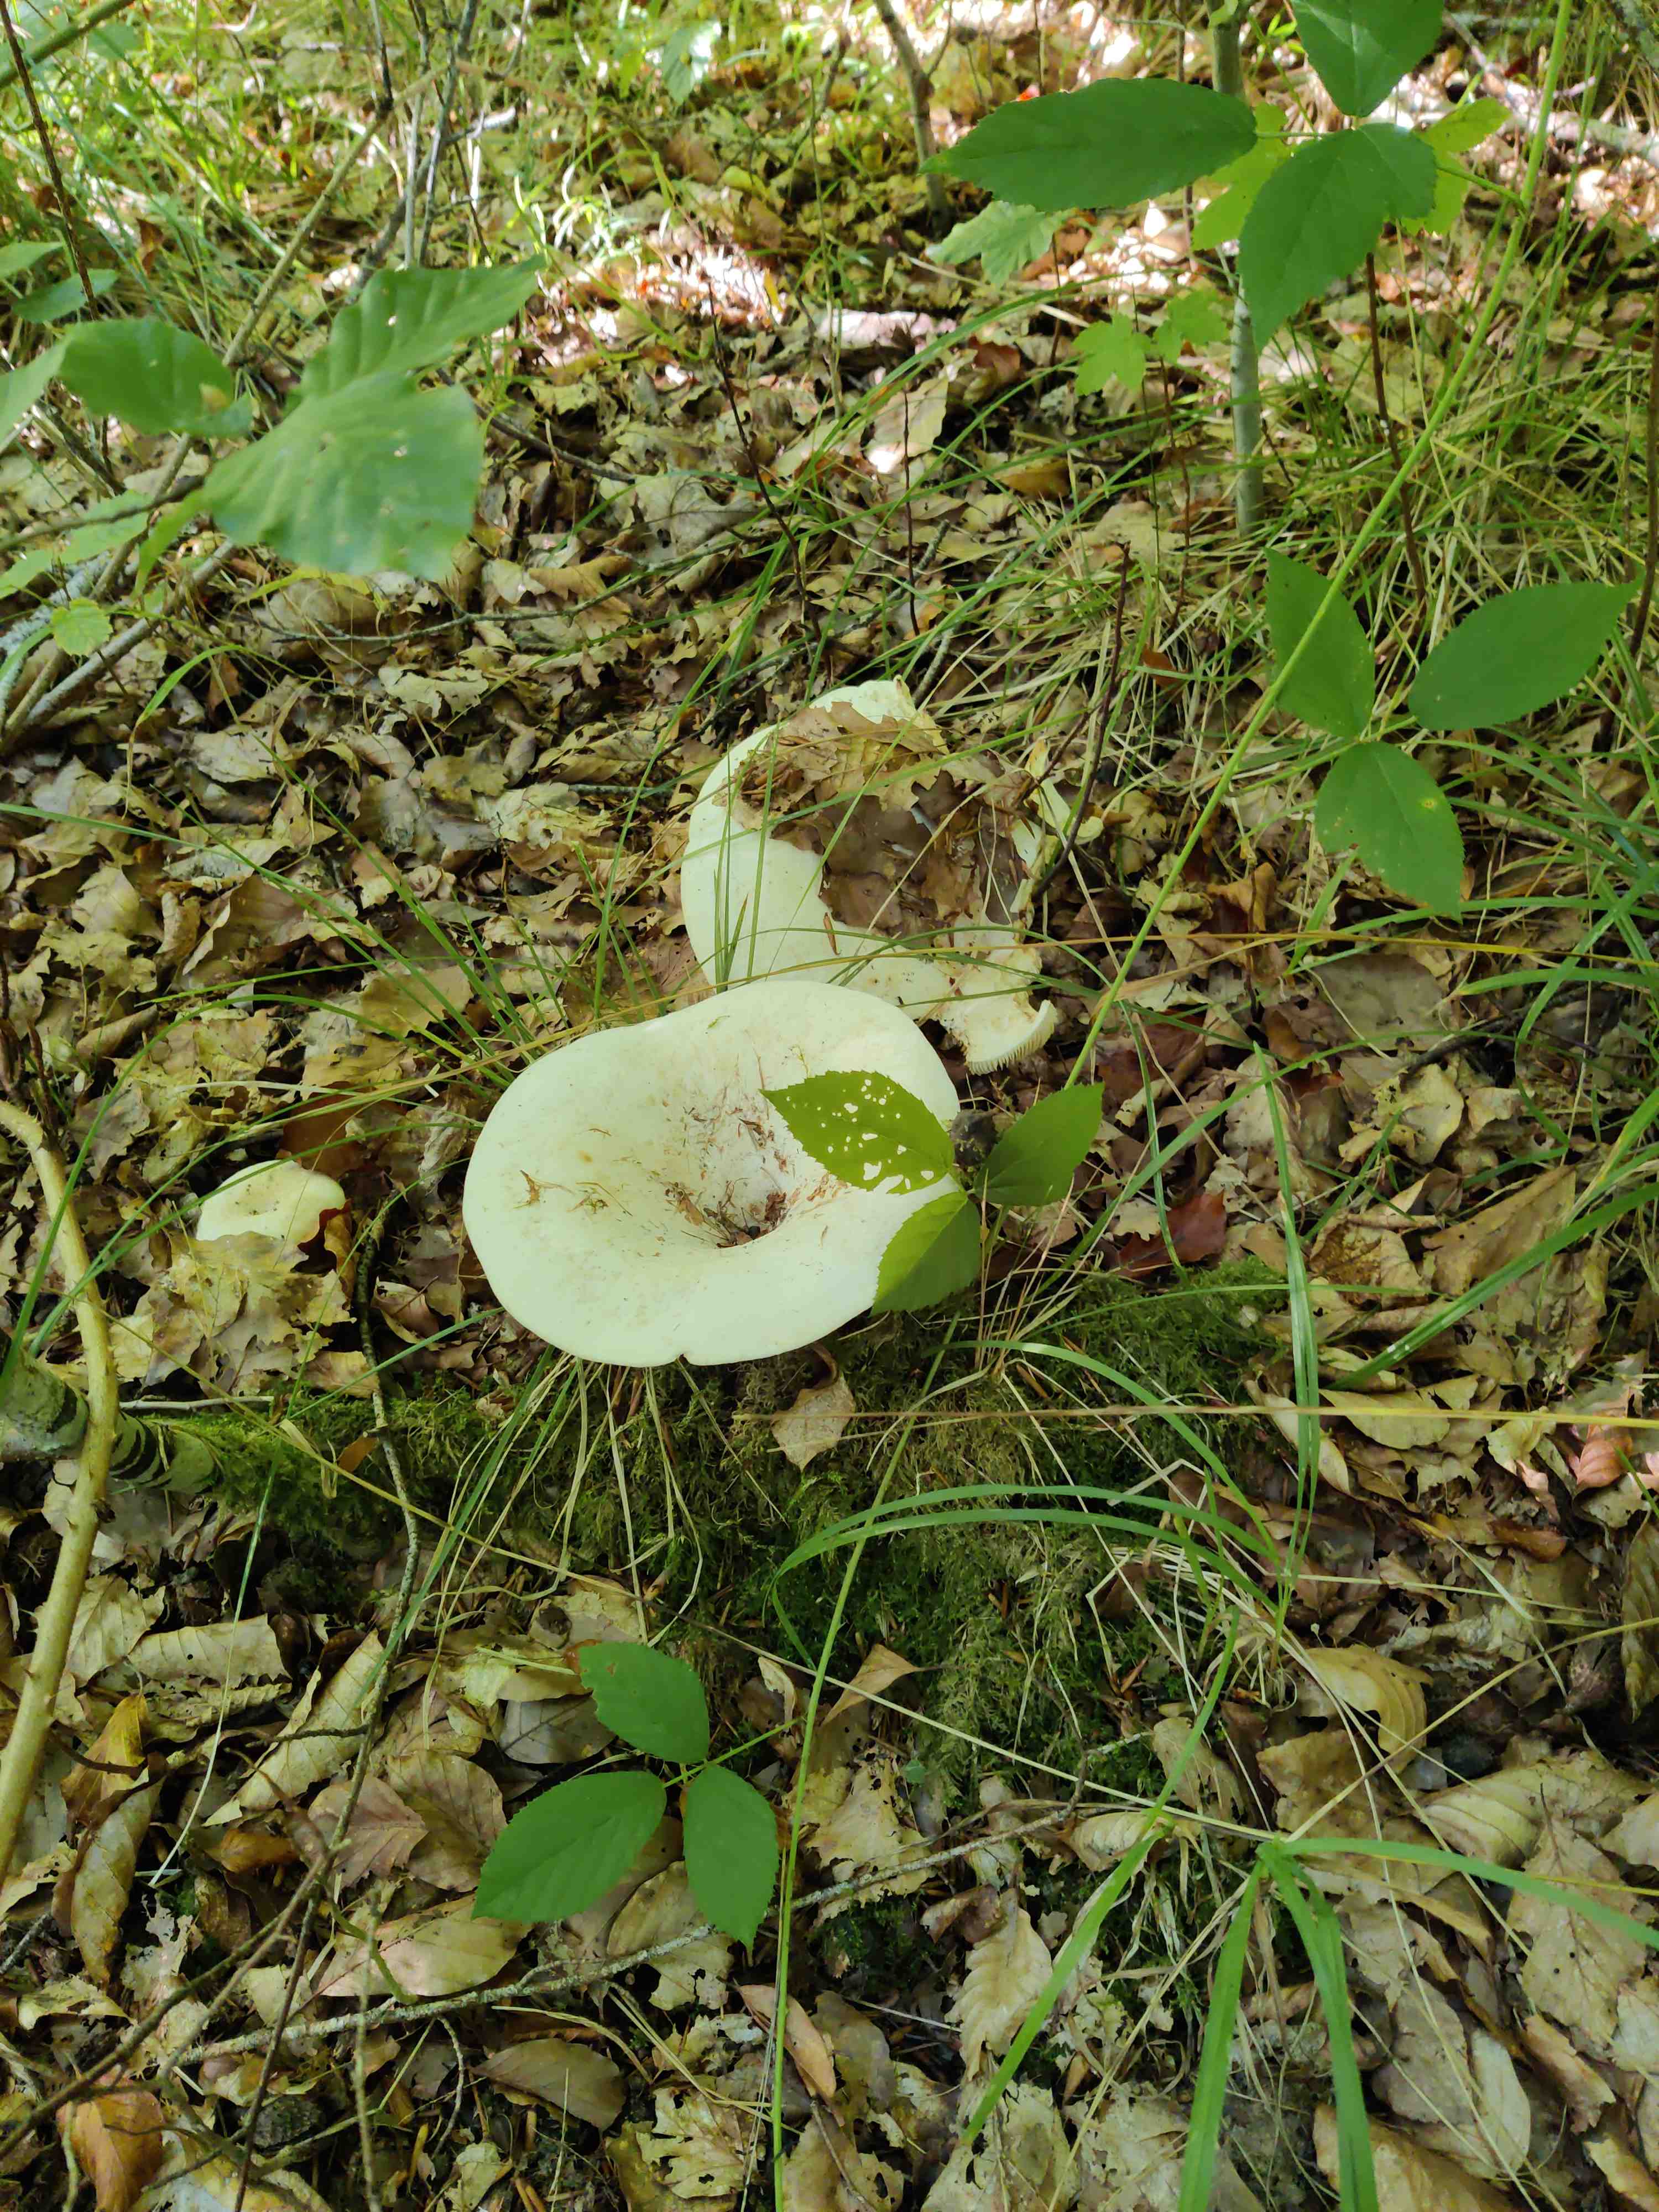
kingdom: Fungi
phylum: Basidiomycota
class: Agaricomycetes
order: Russulales
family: Russulaceae
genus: Lactifluus
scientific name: Lactifluus
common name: mælkehat
